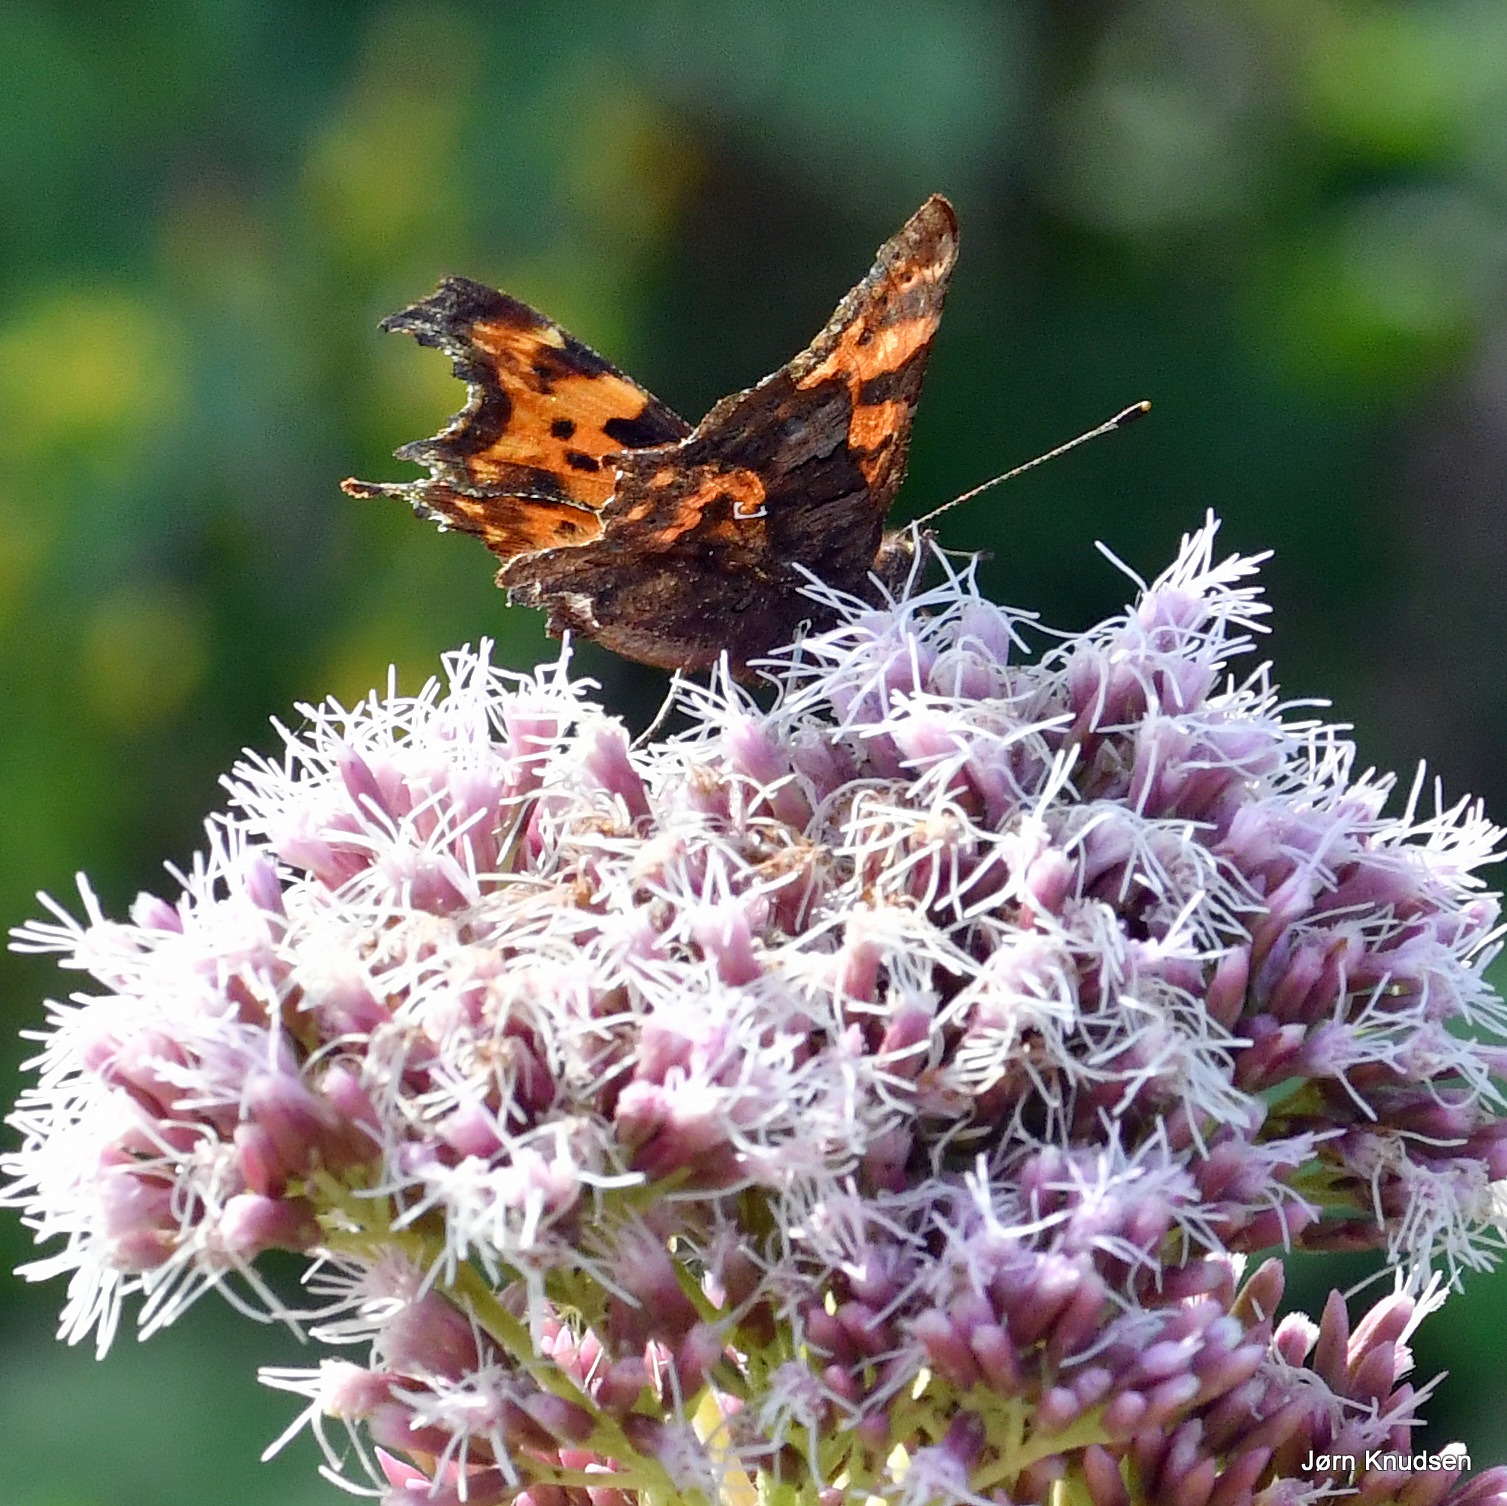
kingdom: Animalia
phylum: Arthropoda
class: Insecta
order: Lepidoptera
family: Nymphalidae
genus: Polygonia
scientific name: Polygonia c-album
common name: Det hvide C
